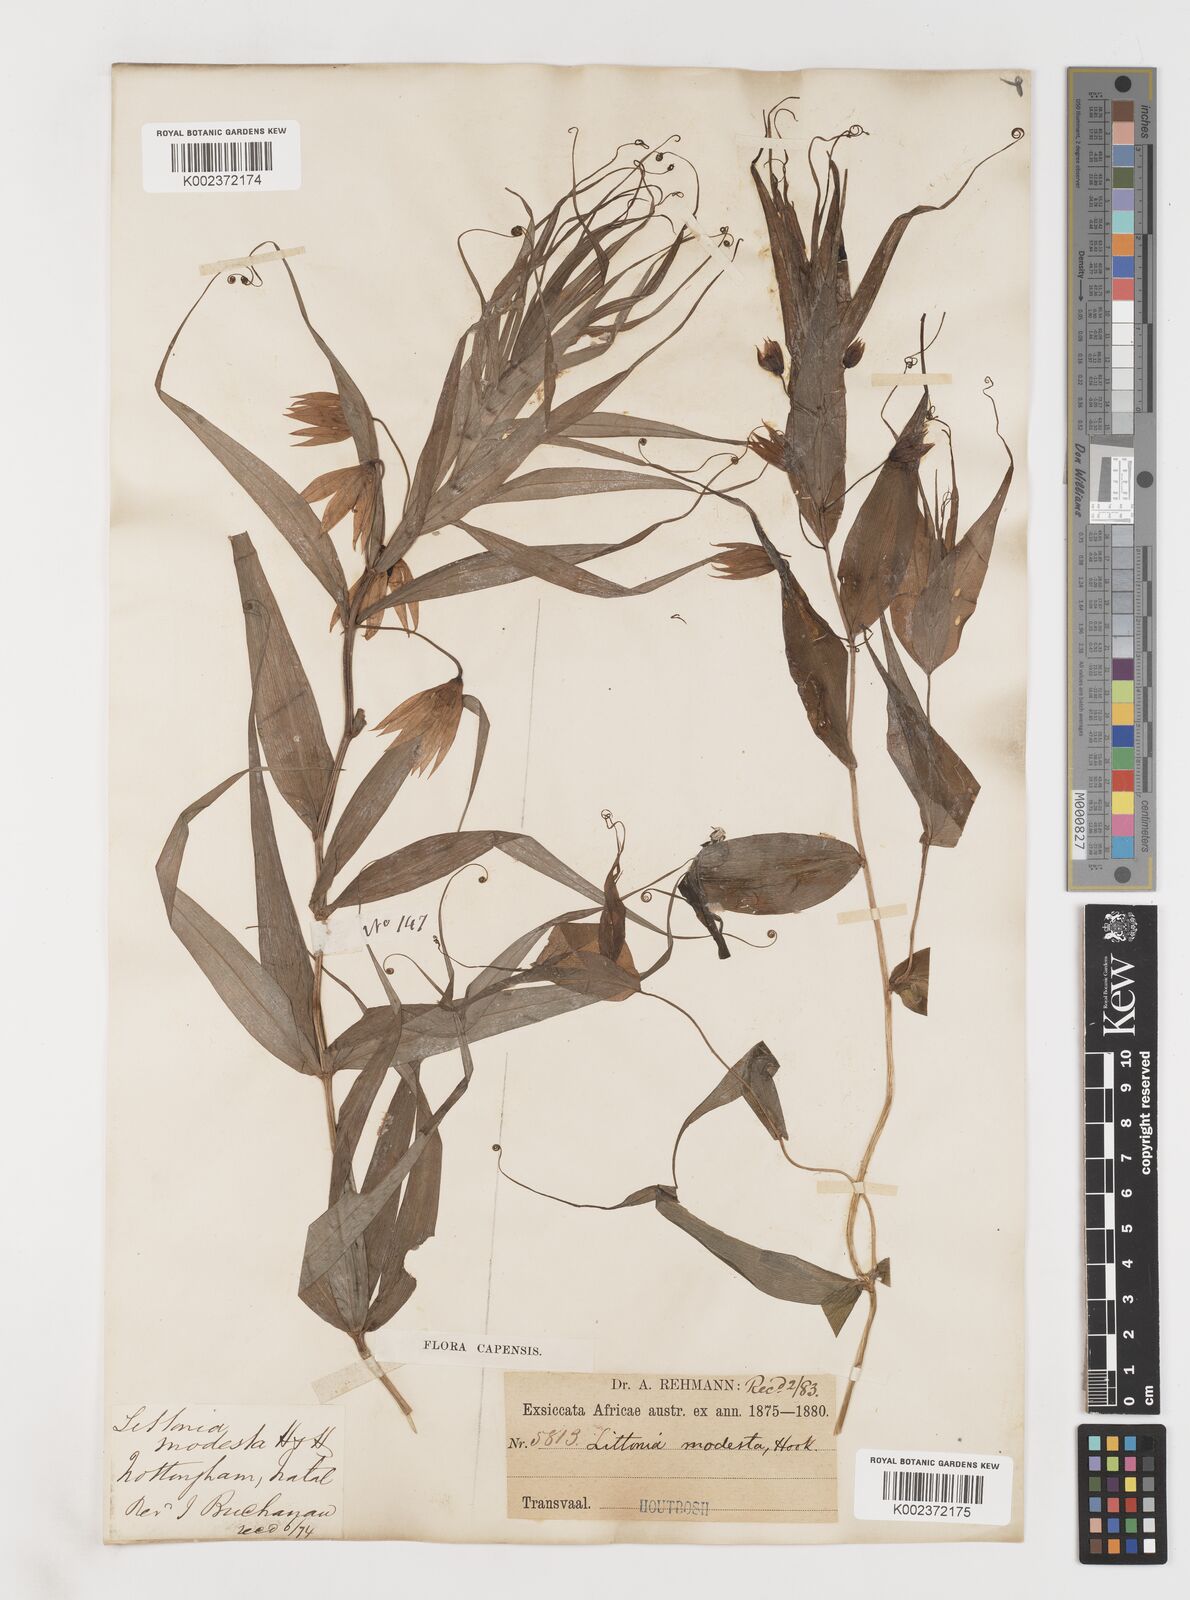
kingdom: Plantae
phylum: Tracheophyta
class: Liliopsida
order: Liliales
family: Colchicaceae
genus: Gloriosa
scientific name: Gloriosa modesta
